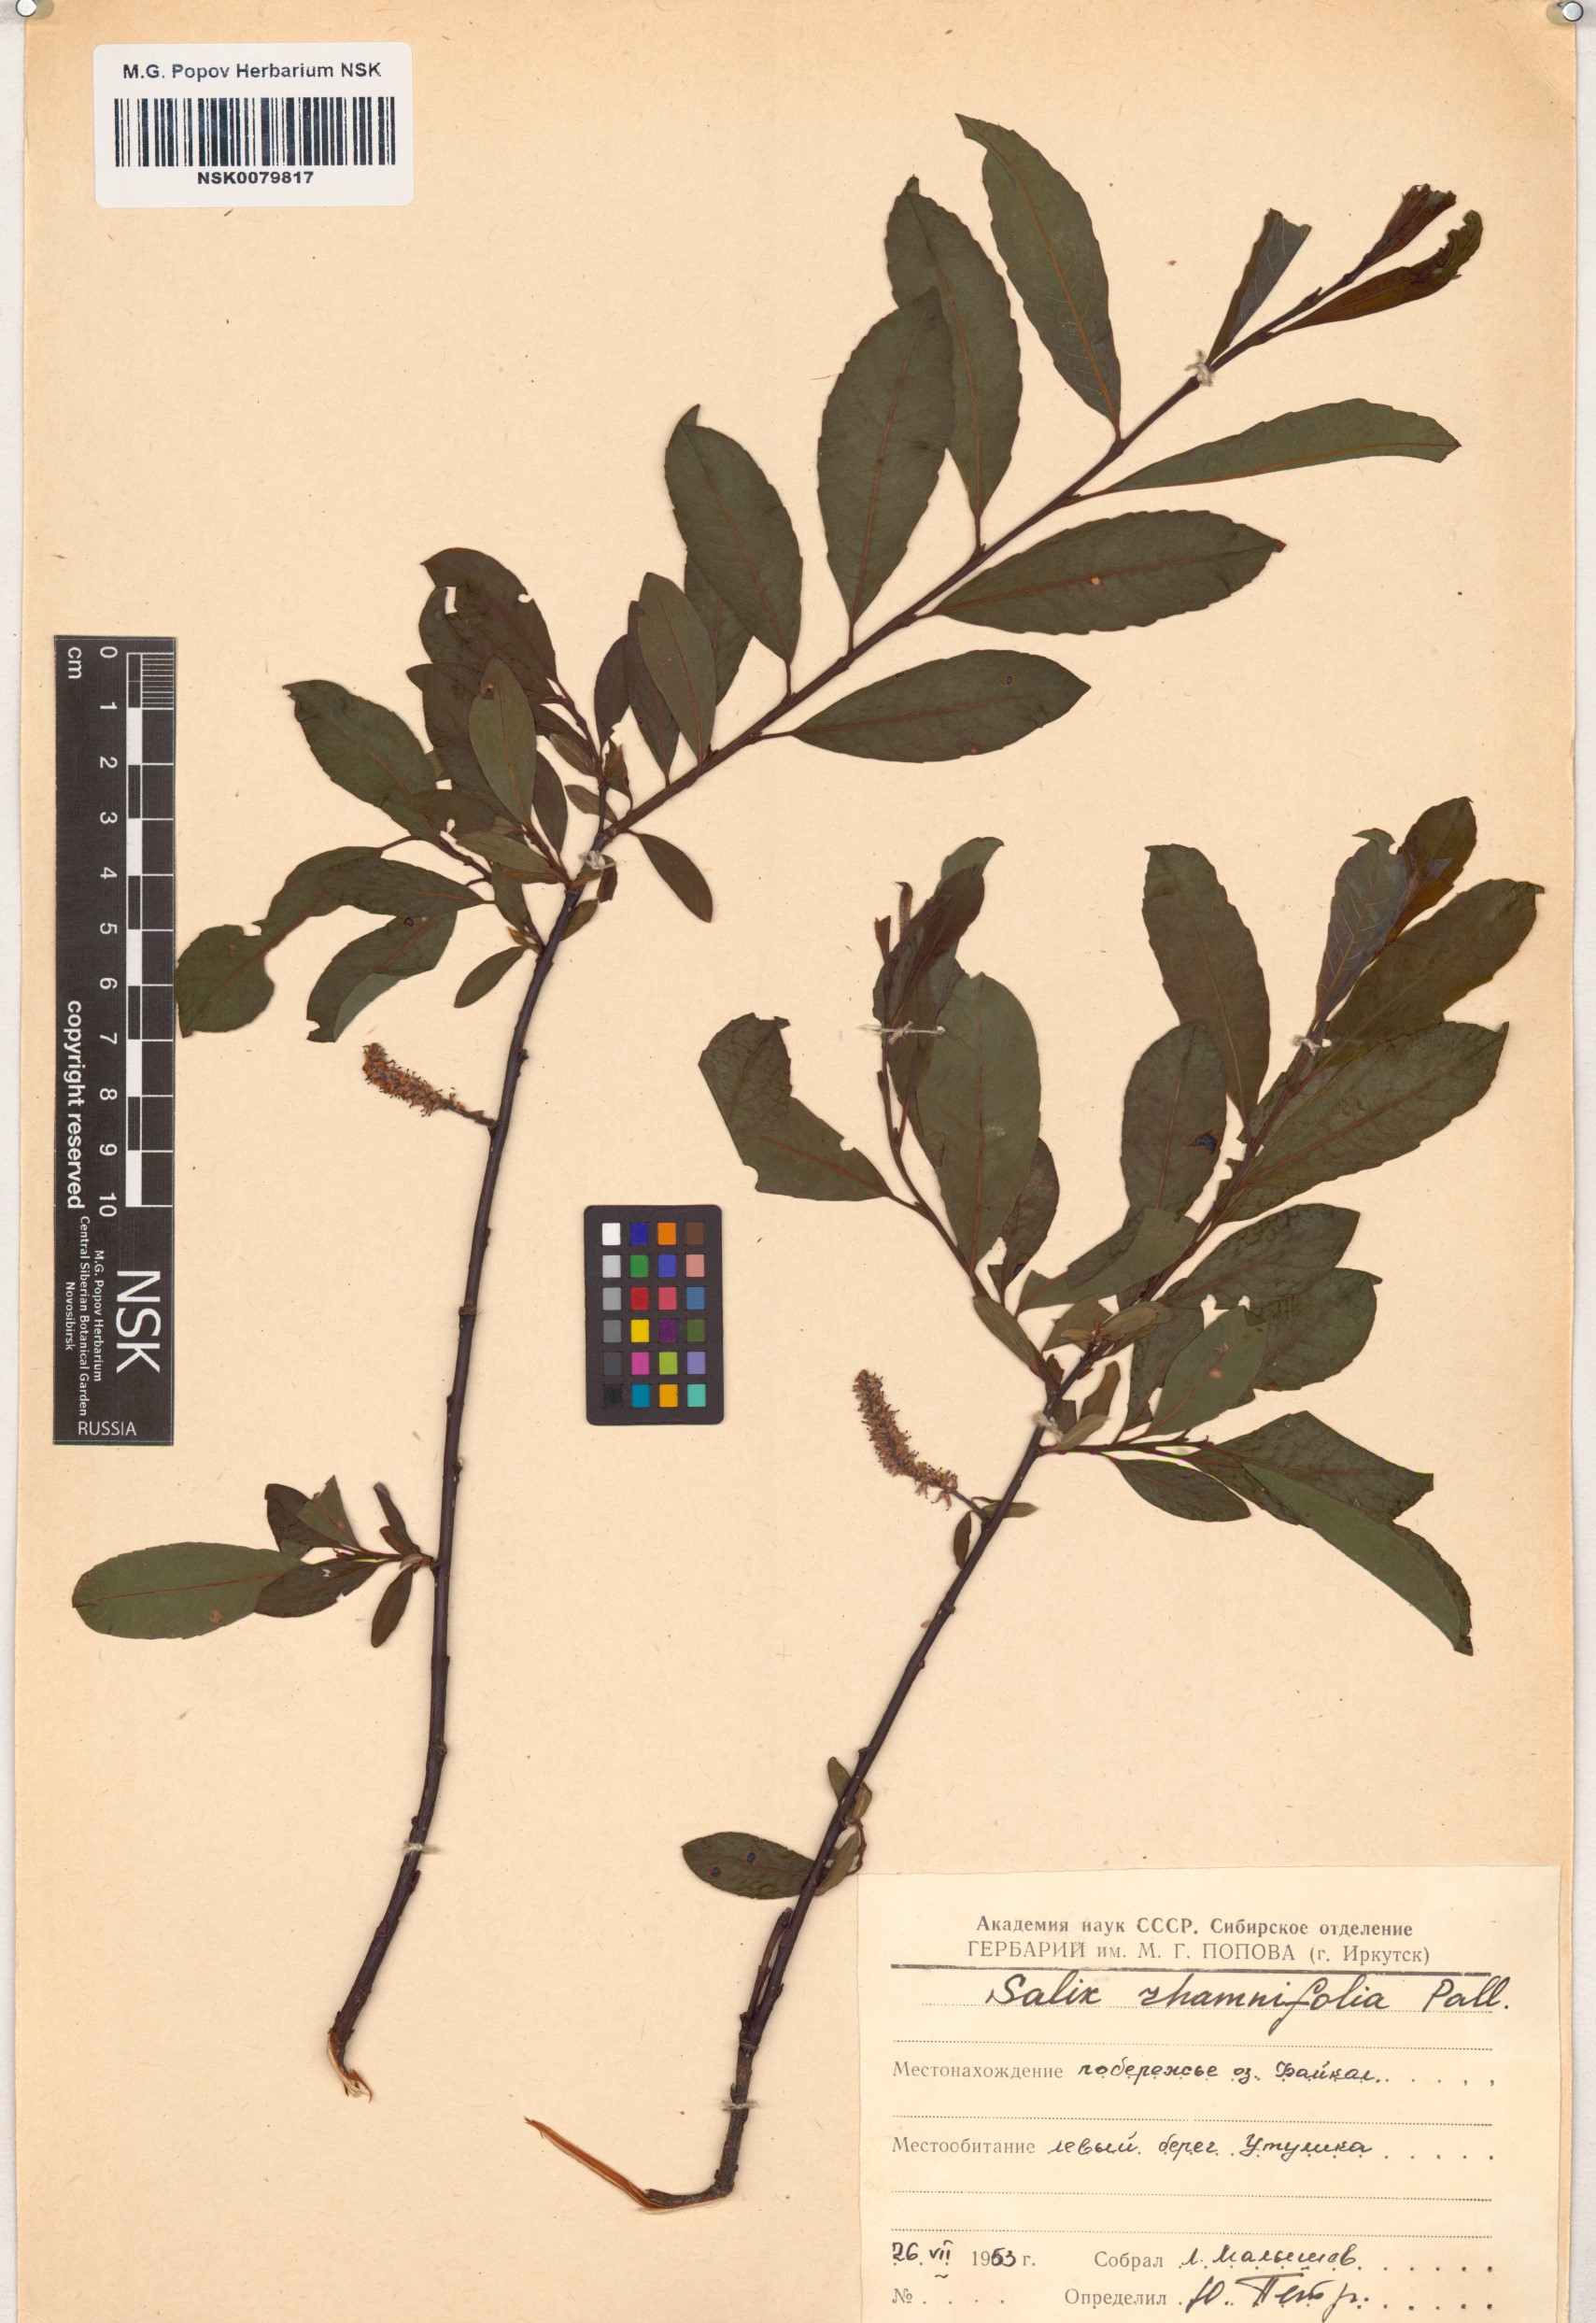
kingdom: Plantae
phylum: Tracheophyta
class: Magnoliopsida
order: Malpighiales
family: Salicaceae
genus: Salix
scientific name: Salix rhamnifolia
